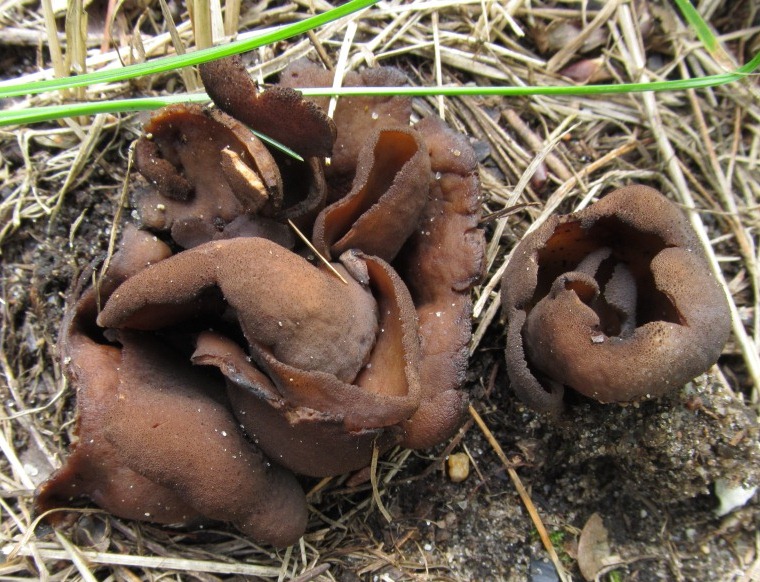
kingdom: Fungi
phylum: Ascomycota
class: Pezizomycetes
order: Pezizales
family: Otideaceae
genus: Otidea
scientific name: Otidea bufonia
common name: brun ørebæger
